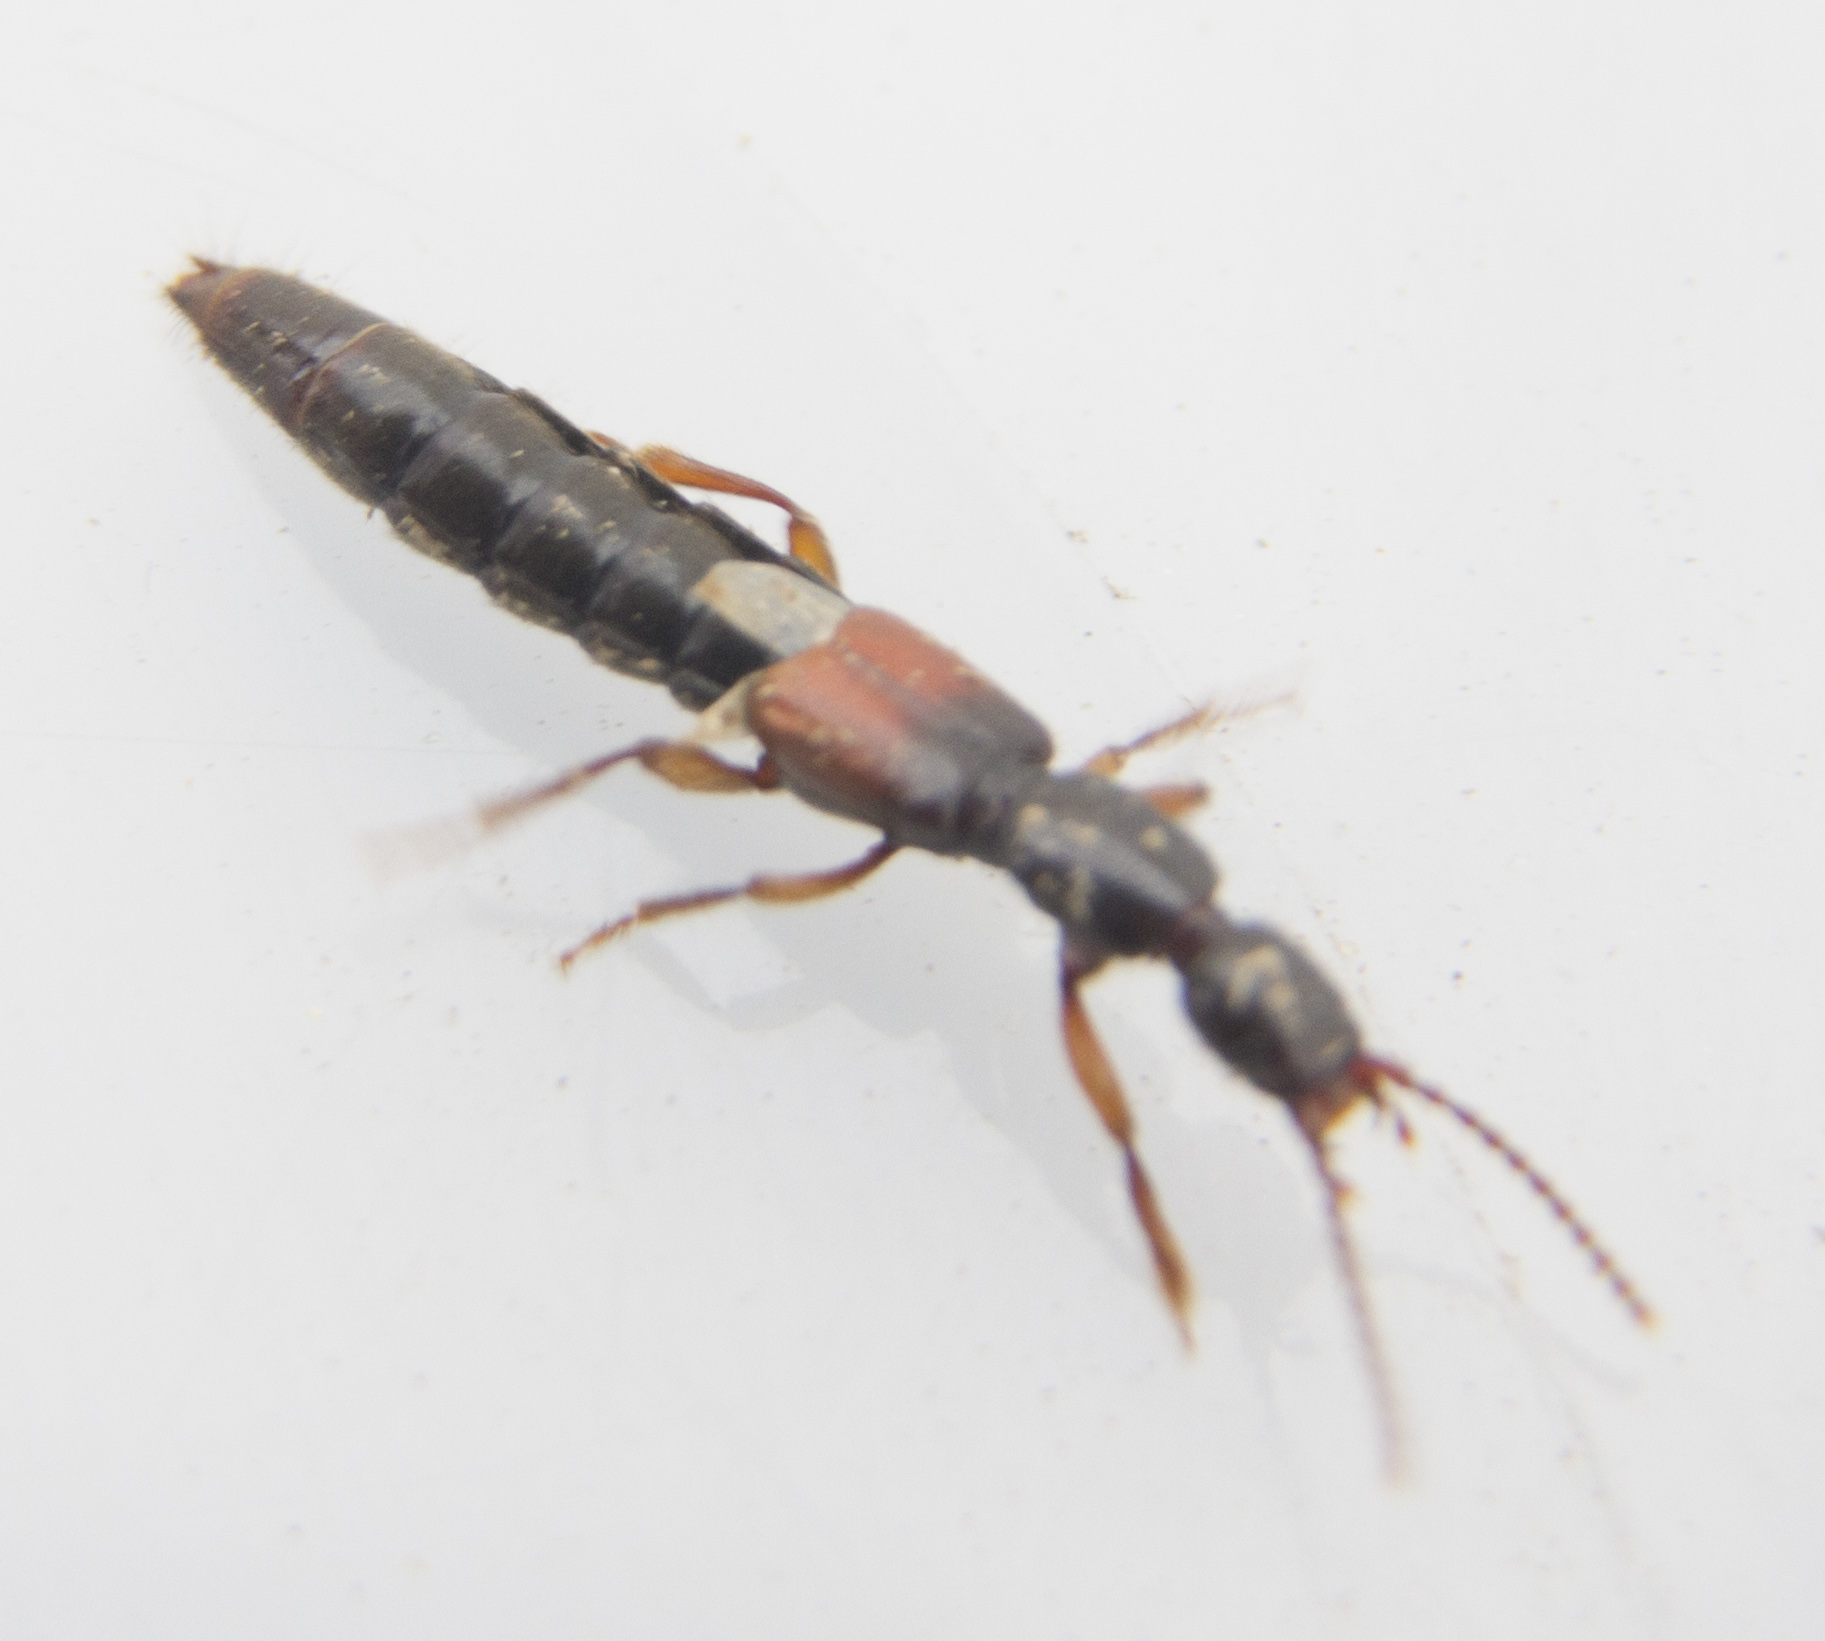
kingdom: Animalia
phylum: Arthropoda
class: Insecta
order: Coleoptera
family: Staphylinidae
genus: Lathrobium
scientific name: Lathrobium
